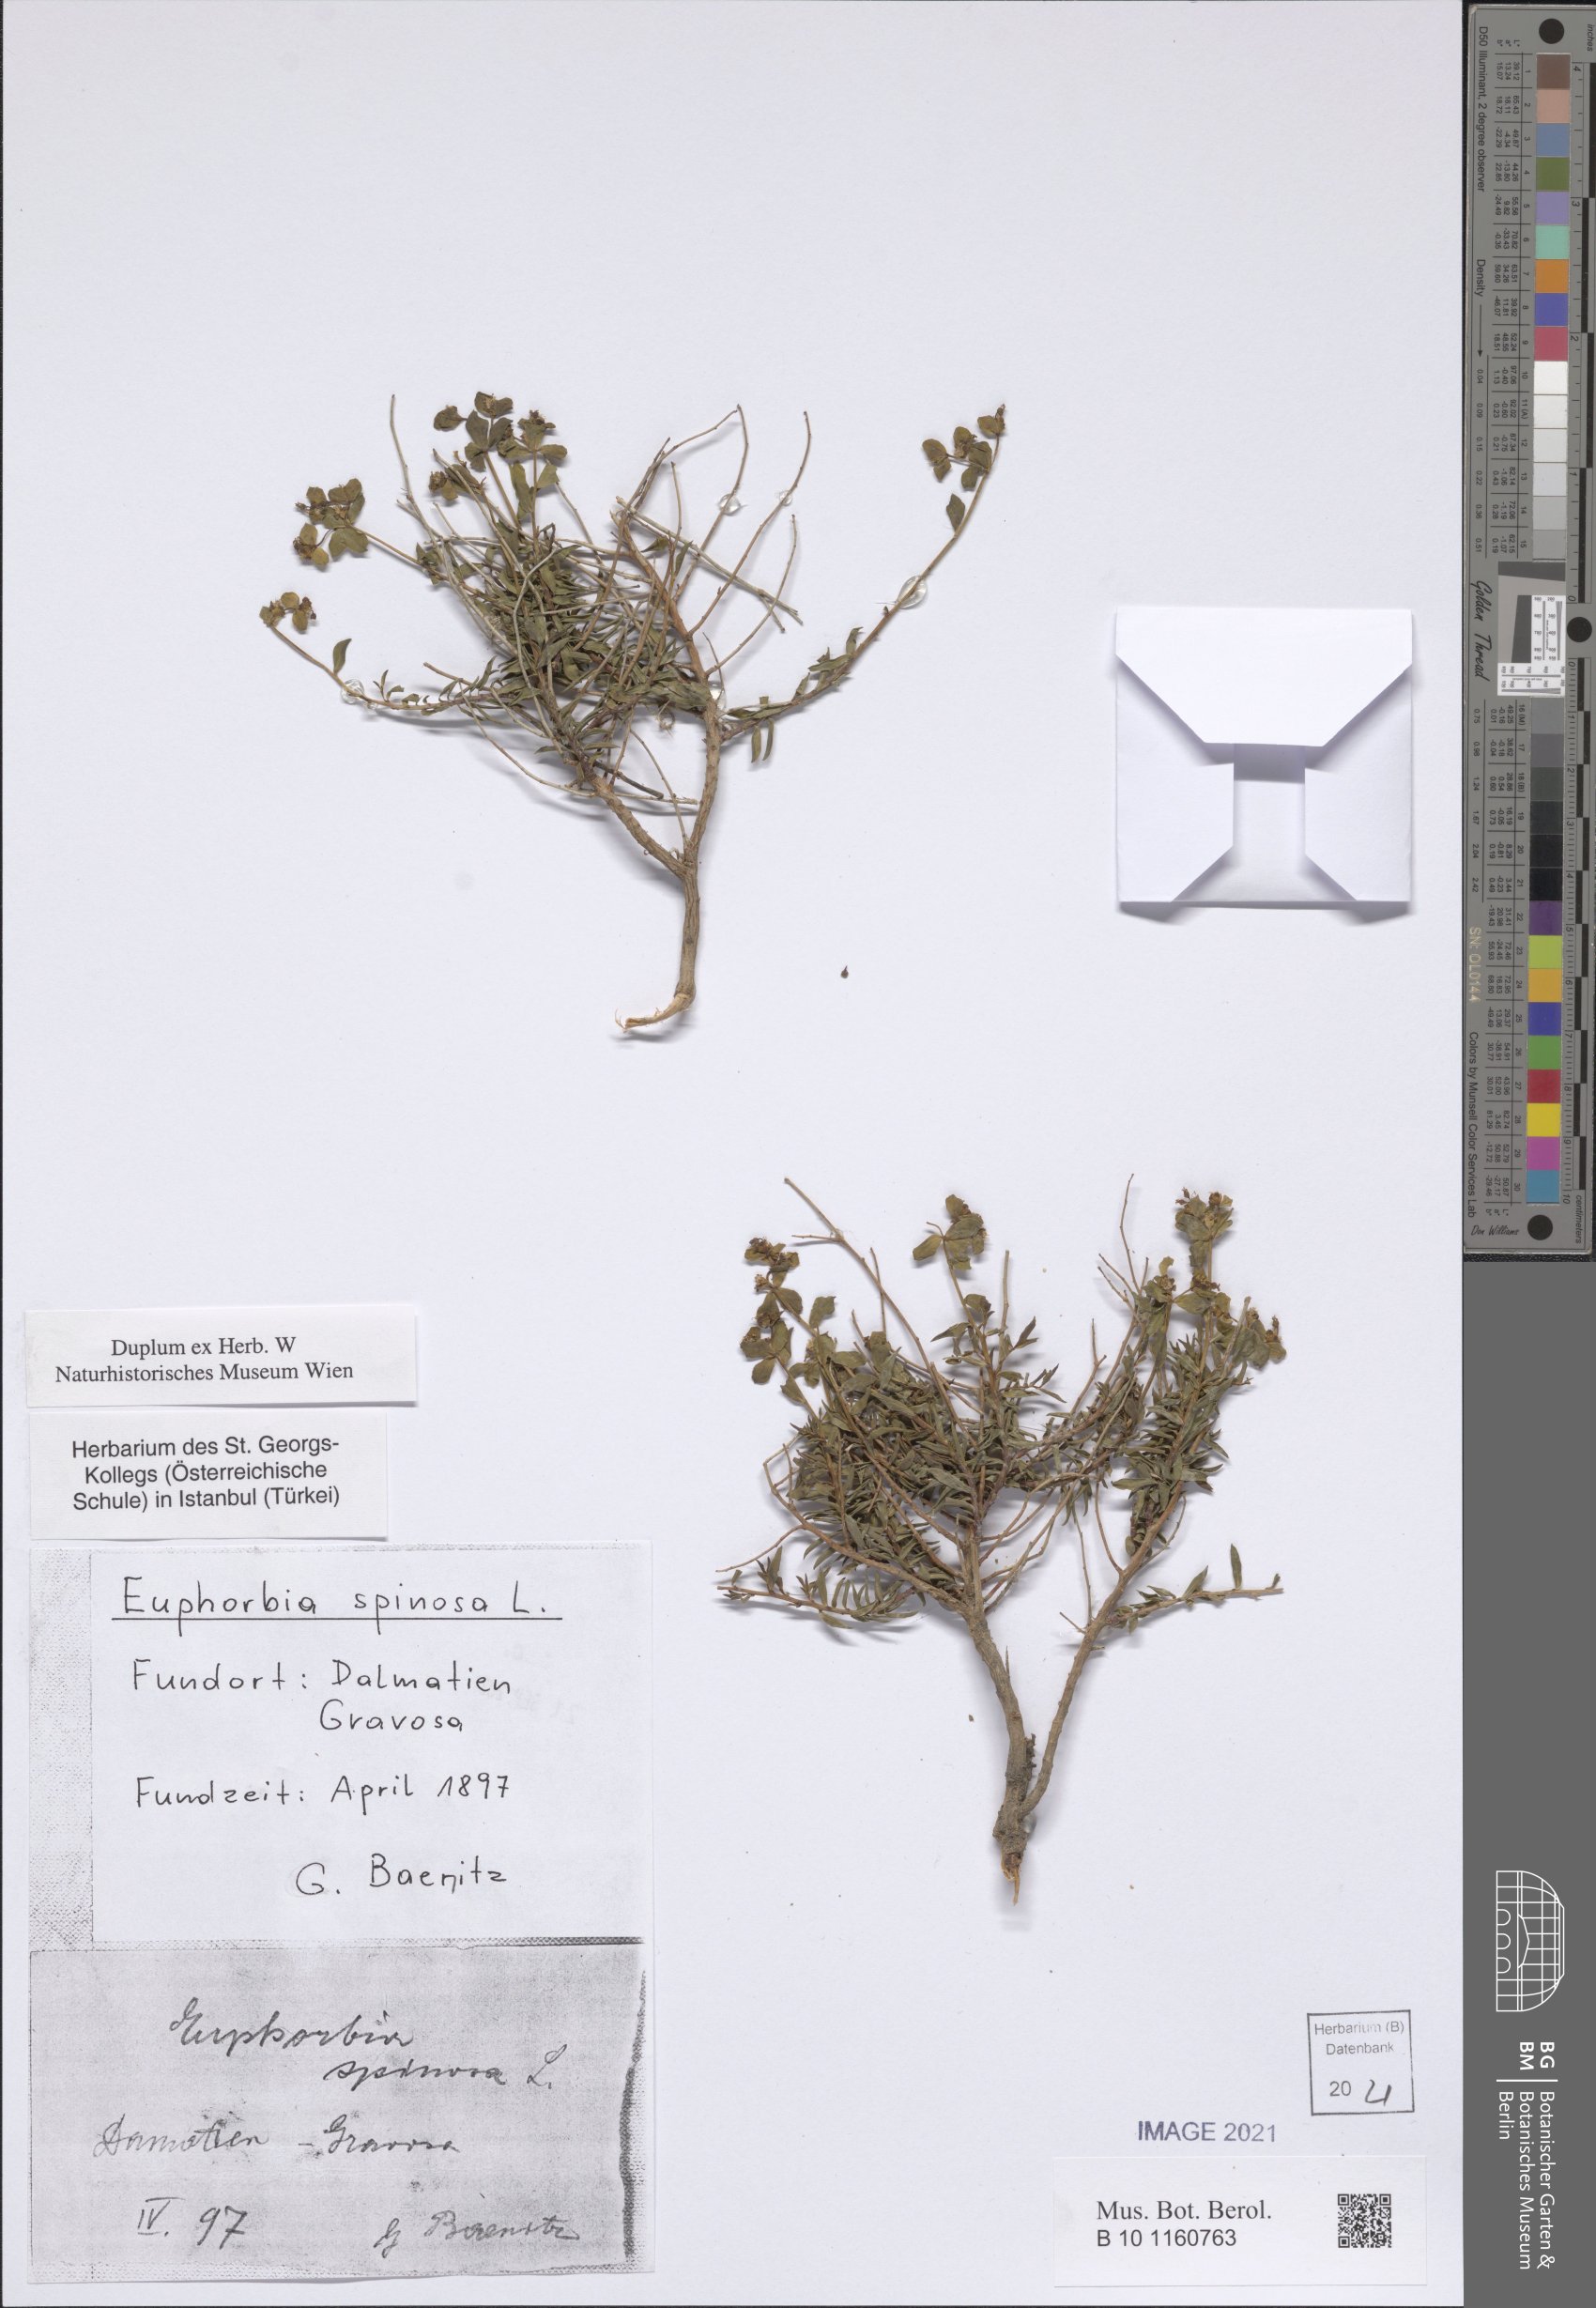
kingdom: Plantae
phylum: Tracheophyta
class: Magnoliopsida
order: Malpighiales
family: Euphorbiaceae
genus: Euphorbia
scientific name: Euphorbia spinosa
